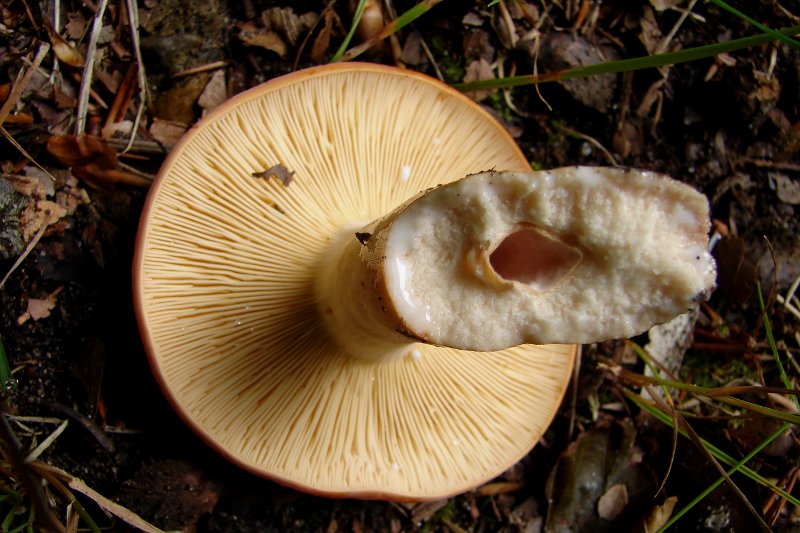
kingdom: Fungi
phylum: Basidiomycota
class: Agaricomycetes
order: Russulales
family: Russulaceae
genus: Lactifluus
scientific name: Lactifluus volemus
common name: spiselig mælkehat
